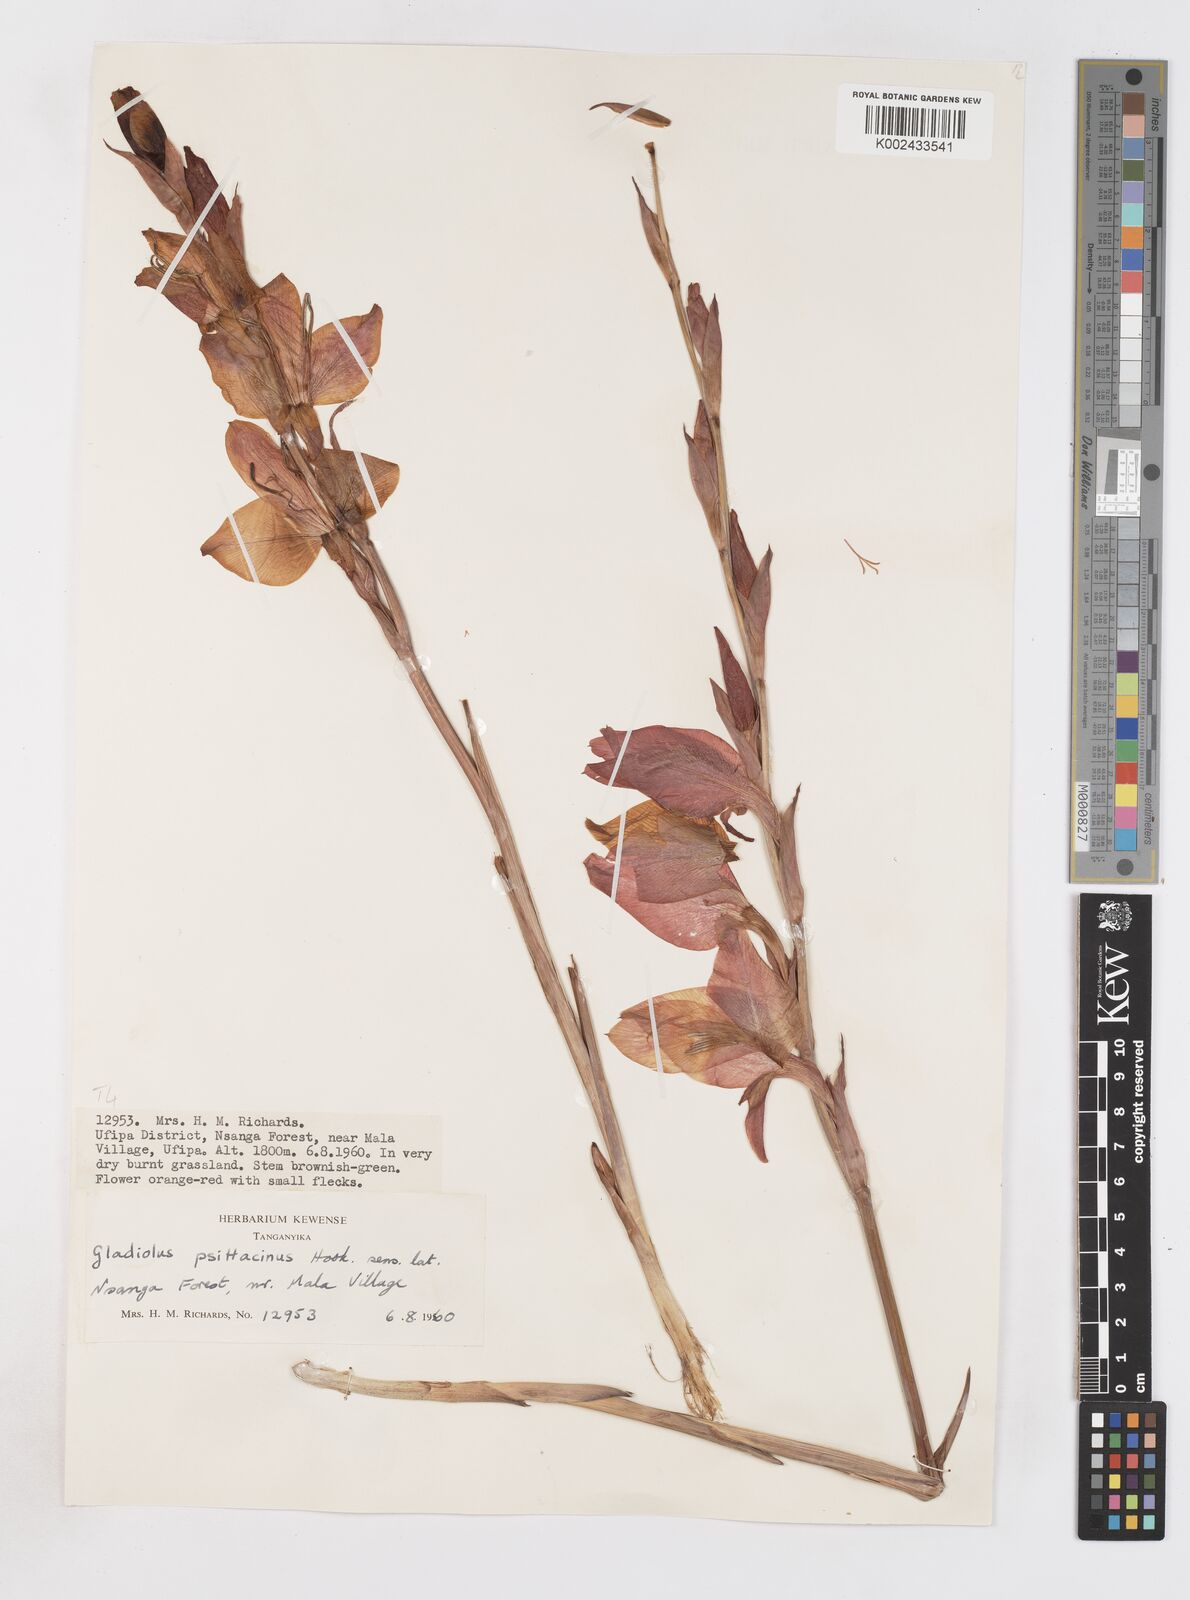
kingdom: Plantae
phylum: Tracheophyta
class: Liliopsida
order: Asparagales
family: Iridaceae
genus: Gladiolus
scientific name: Gladiolus dalenii
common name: Cornflag
